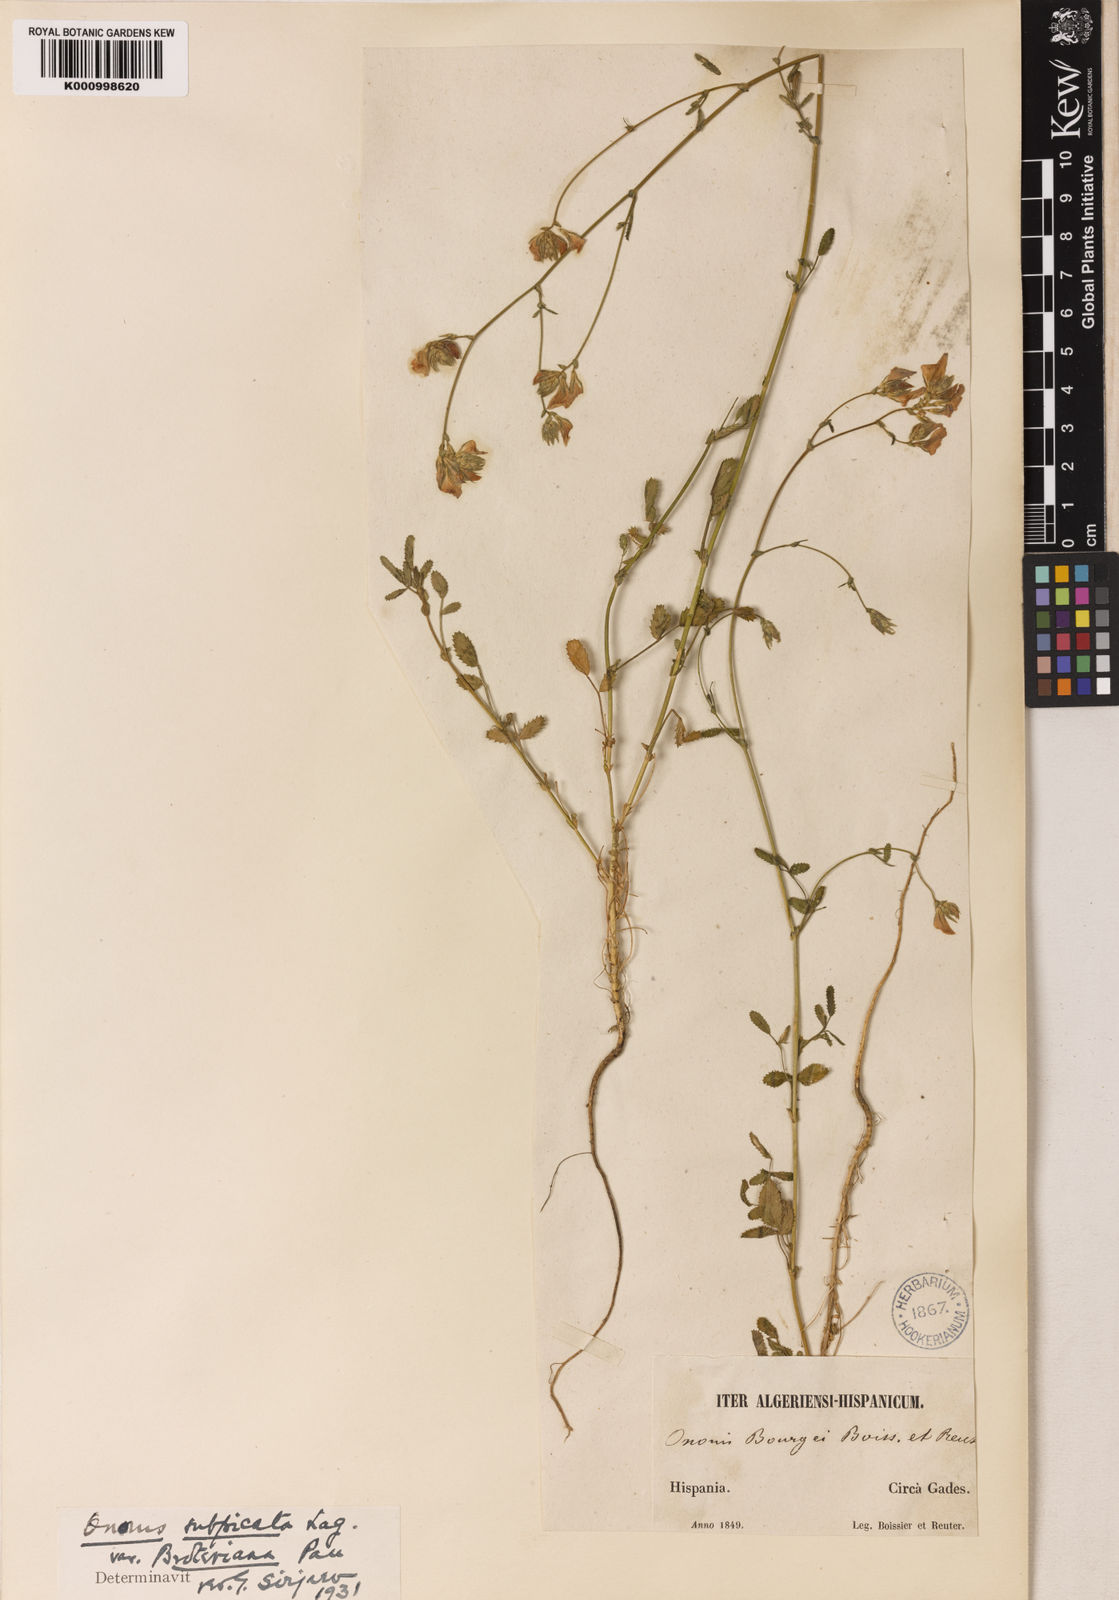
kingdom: Plantae
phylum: Tracheophyta
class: Magnoliopsida
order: Fabales
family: Fabaceae
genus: Ononis
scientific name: Ononis baetica
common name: Andalucian restharrow
